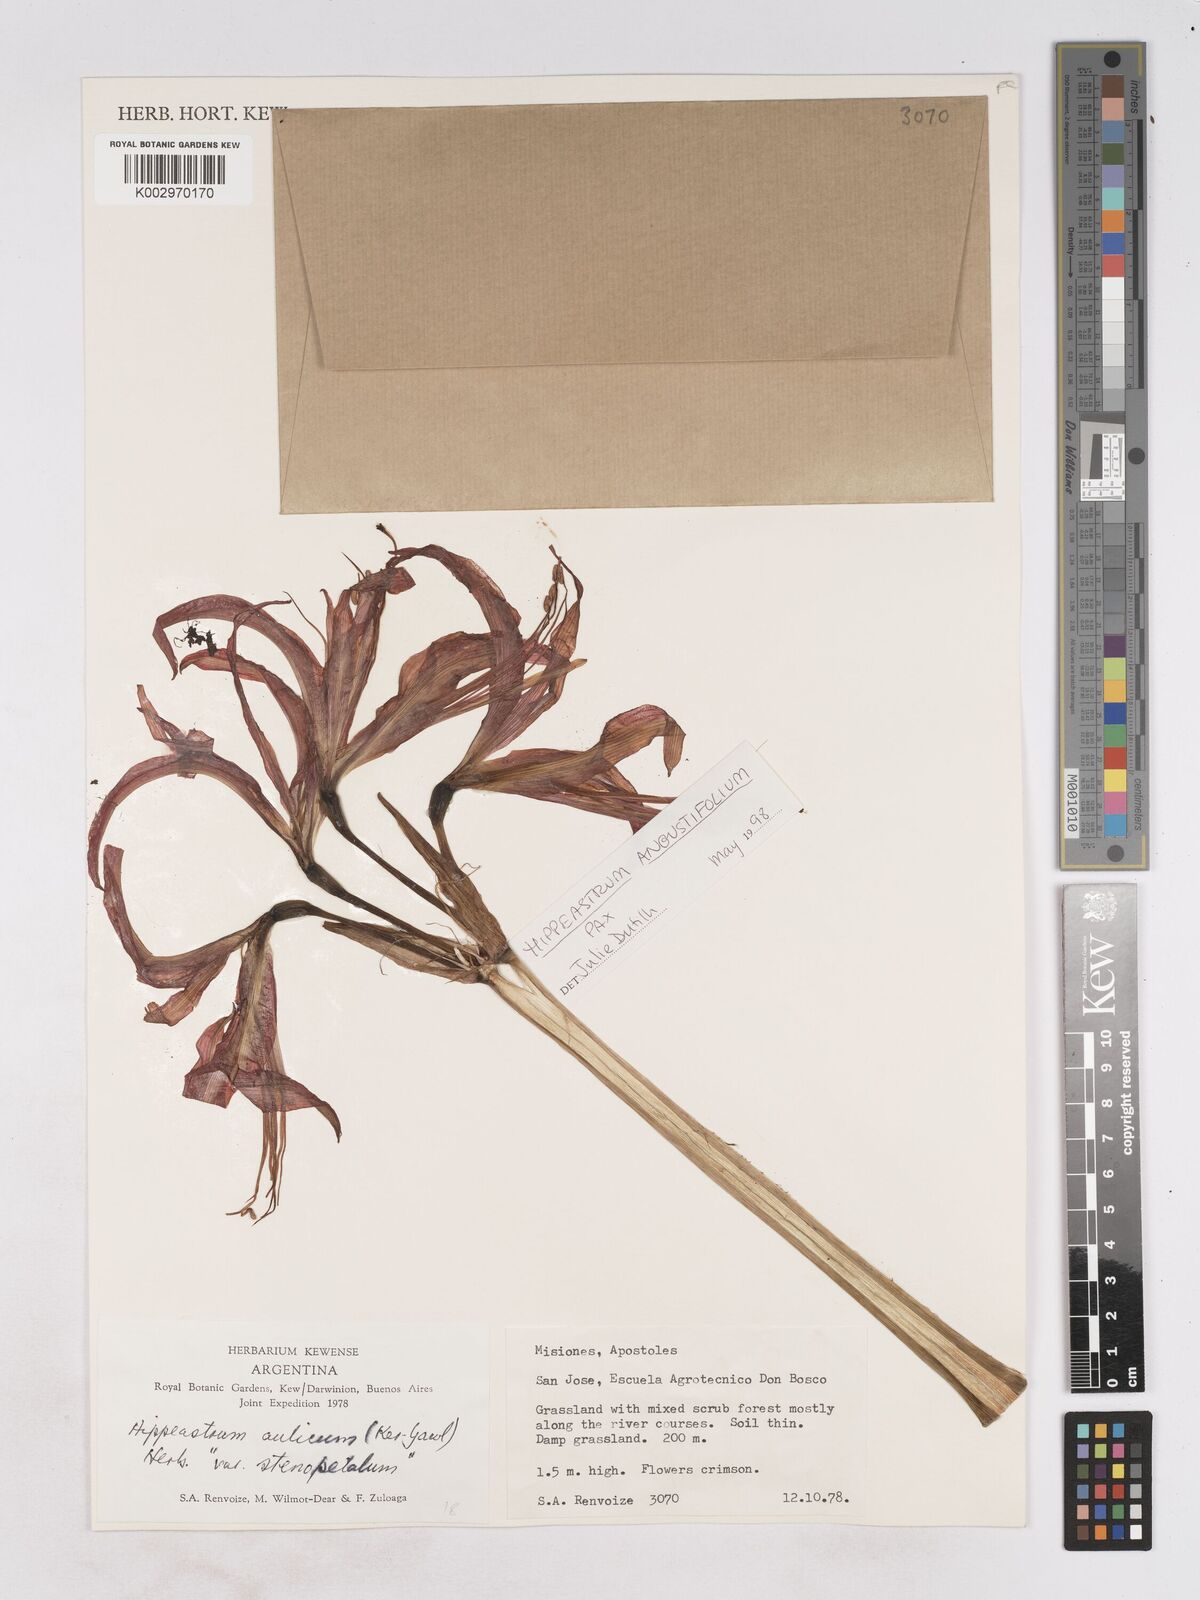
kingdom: Plantae
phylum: Tracheophyta
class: Liliopsida
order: Asparagales
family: Amaryllidaceae
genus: Hippeastrum
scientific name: Hippeastrum aulicum
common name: Lily-of-the-palace
